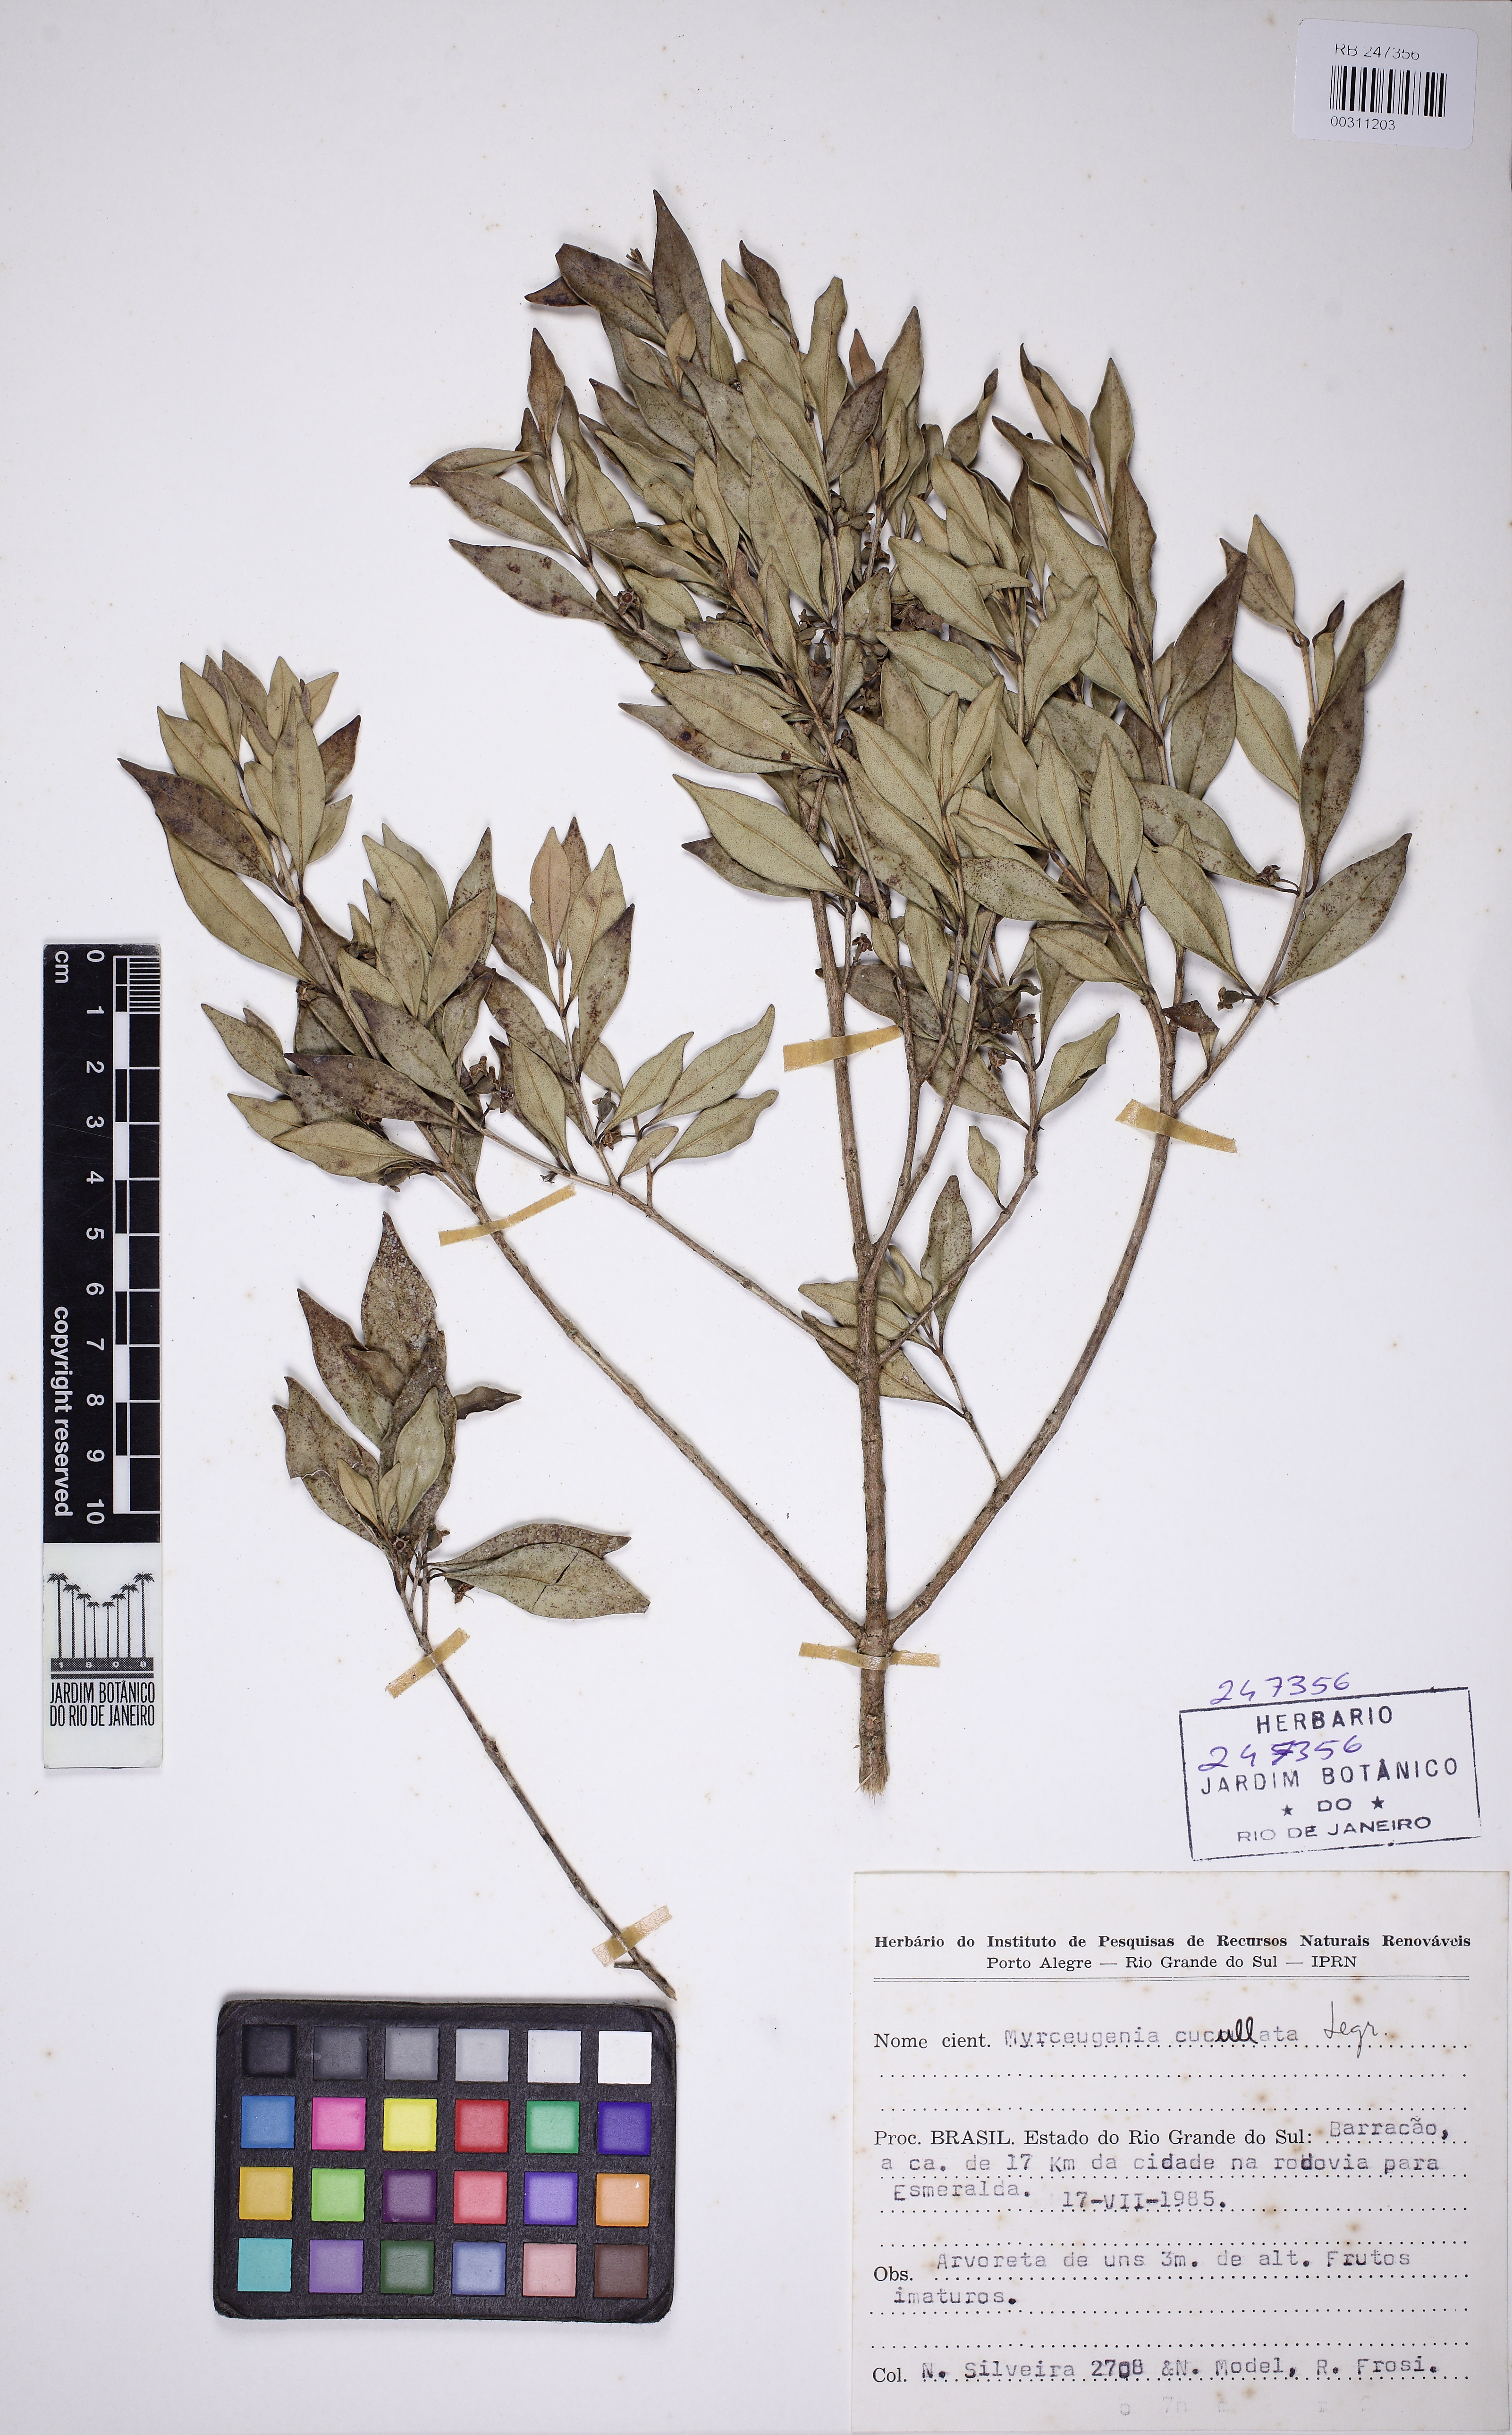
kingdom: Plantae
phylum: Tracheophyta
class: Magnoliopsida
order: Myrtales
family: Myrtaceae
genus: Myrceugenia
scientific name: Myrceugenia cucullata
